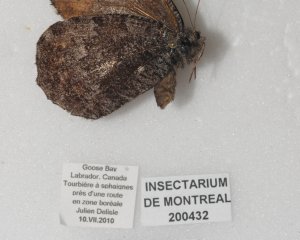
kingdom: Animalia
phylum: Arthropoda
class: Insecta
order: Lepidoptera
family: Nymphalidae
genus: Oeneis
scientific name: Oeneis jutta
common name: Jutta Arctic
